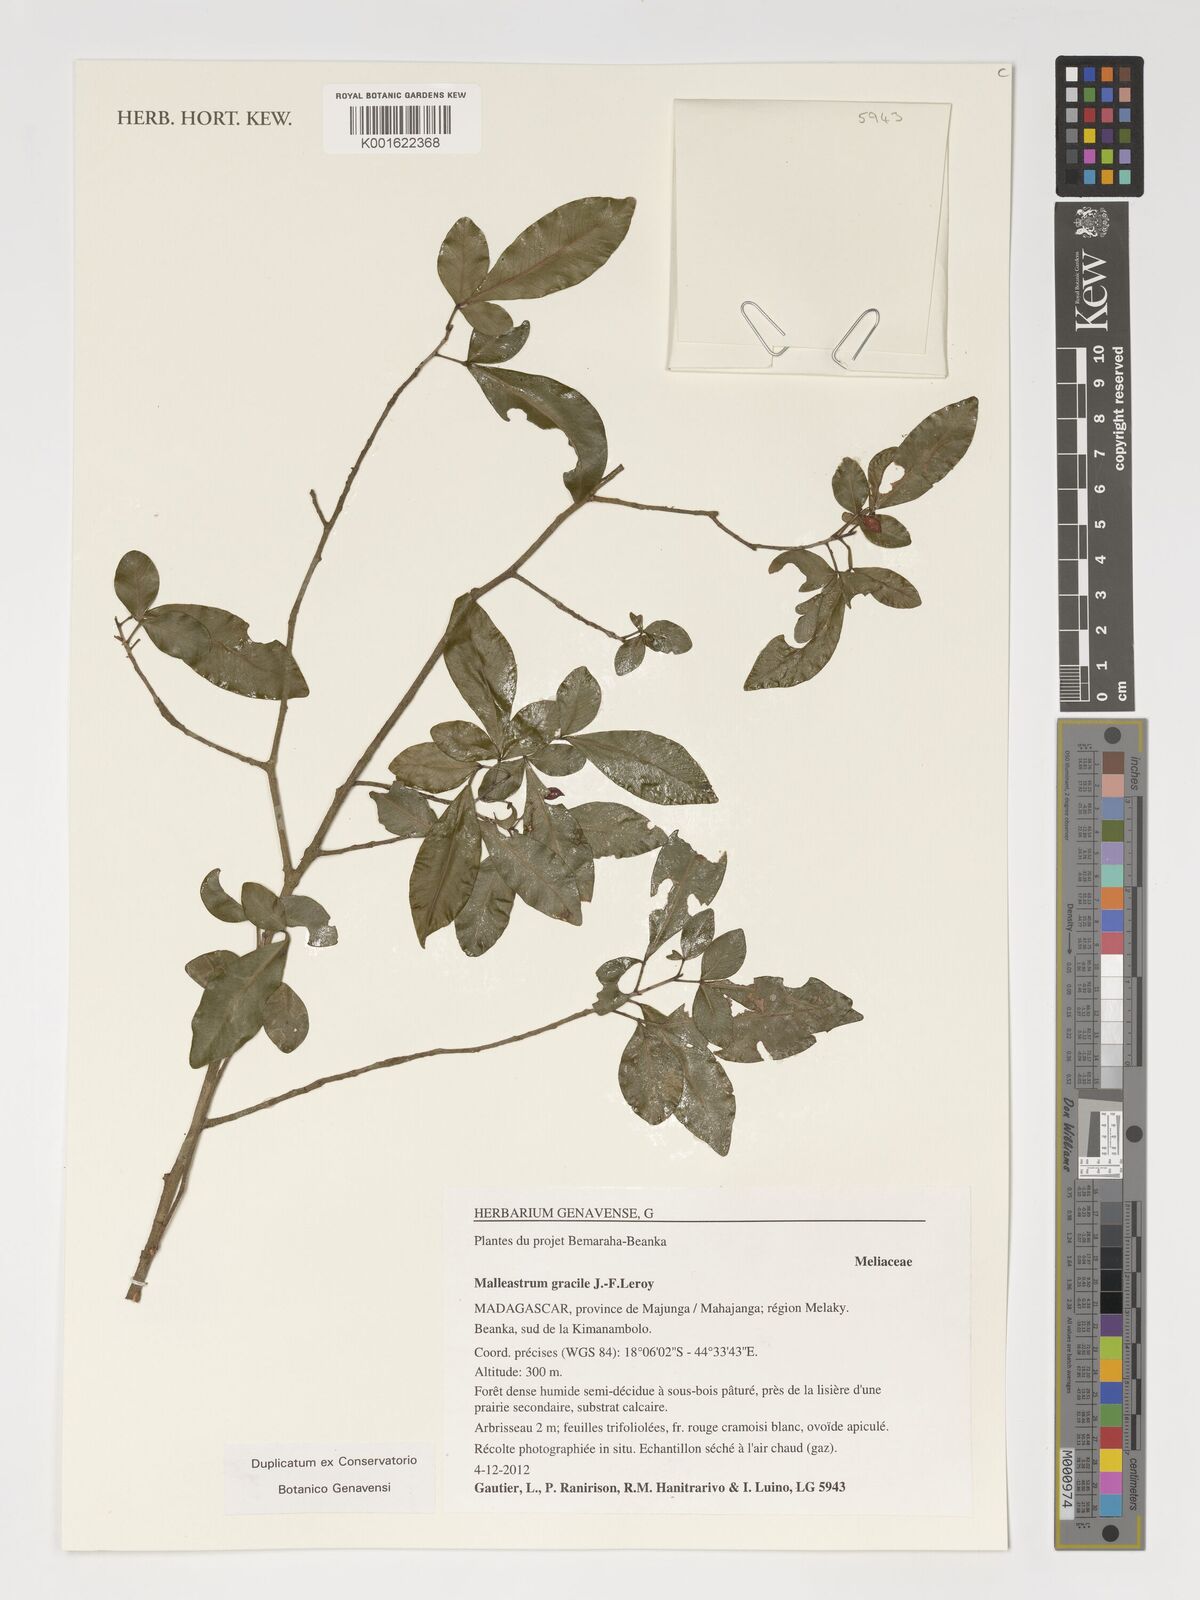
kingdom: Plantae
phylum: Tracheophyta
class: Magnoliopsida
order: Sapindales
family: Meliaceae
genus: Malleastrum
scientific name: Malleastrum gracile
